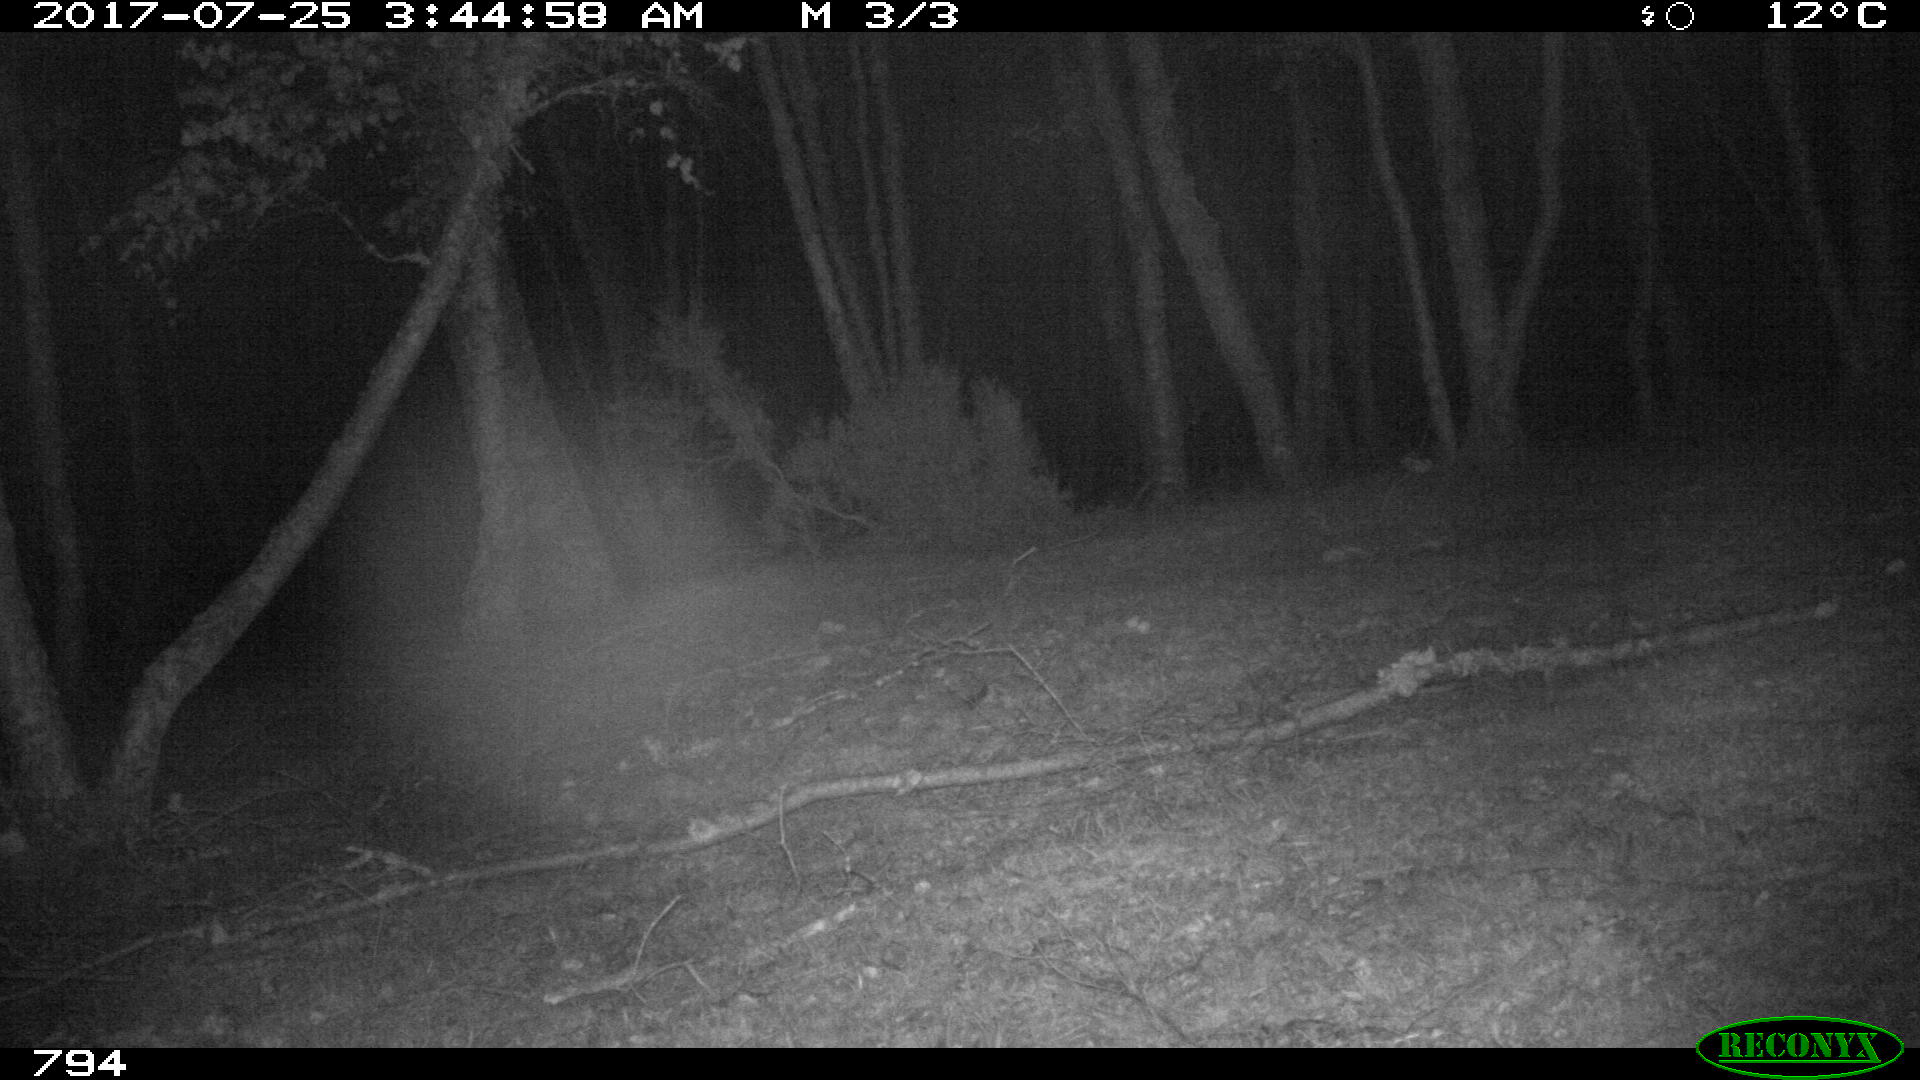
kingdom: Animalia
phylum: Chordata
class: Mammalia
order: Artiodactyla
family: Suidae
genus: Sus
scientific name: Sus scrofa
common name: Wild boar
